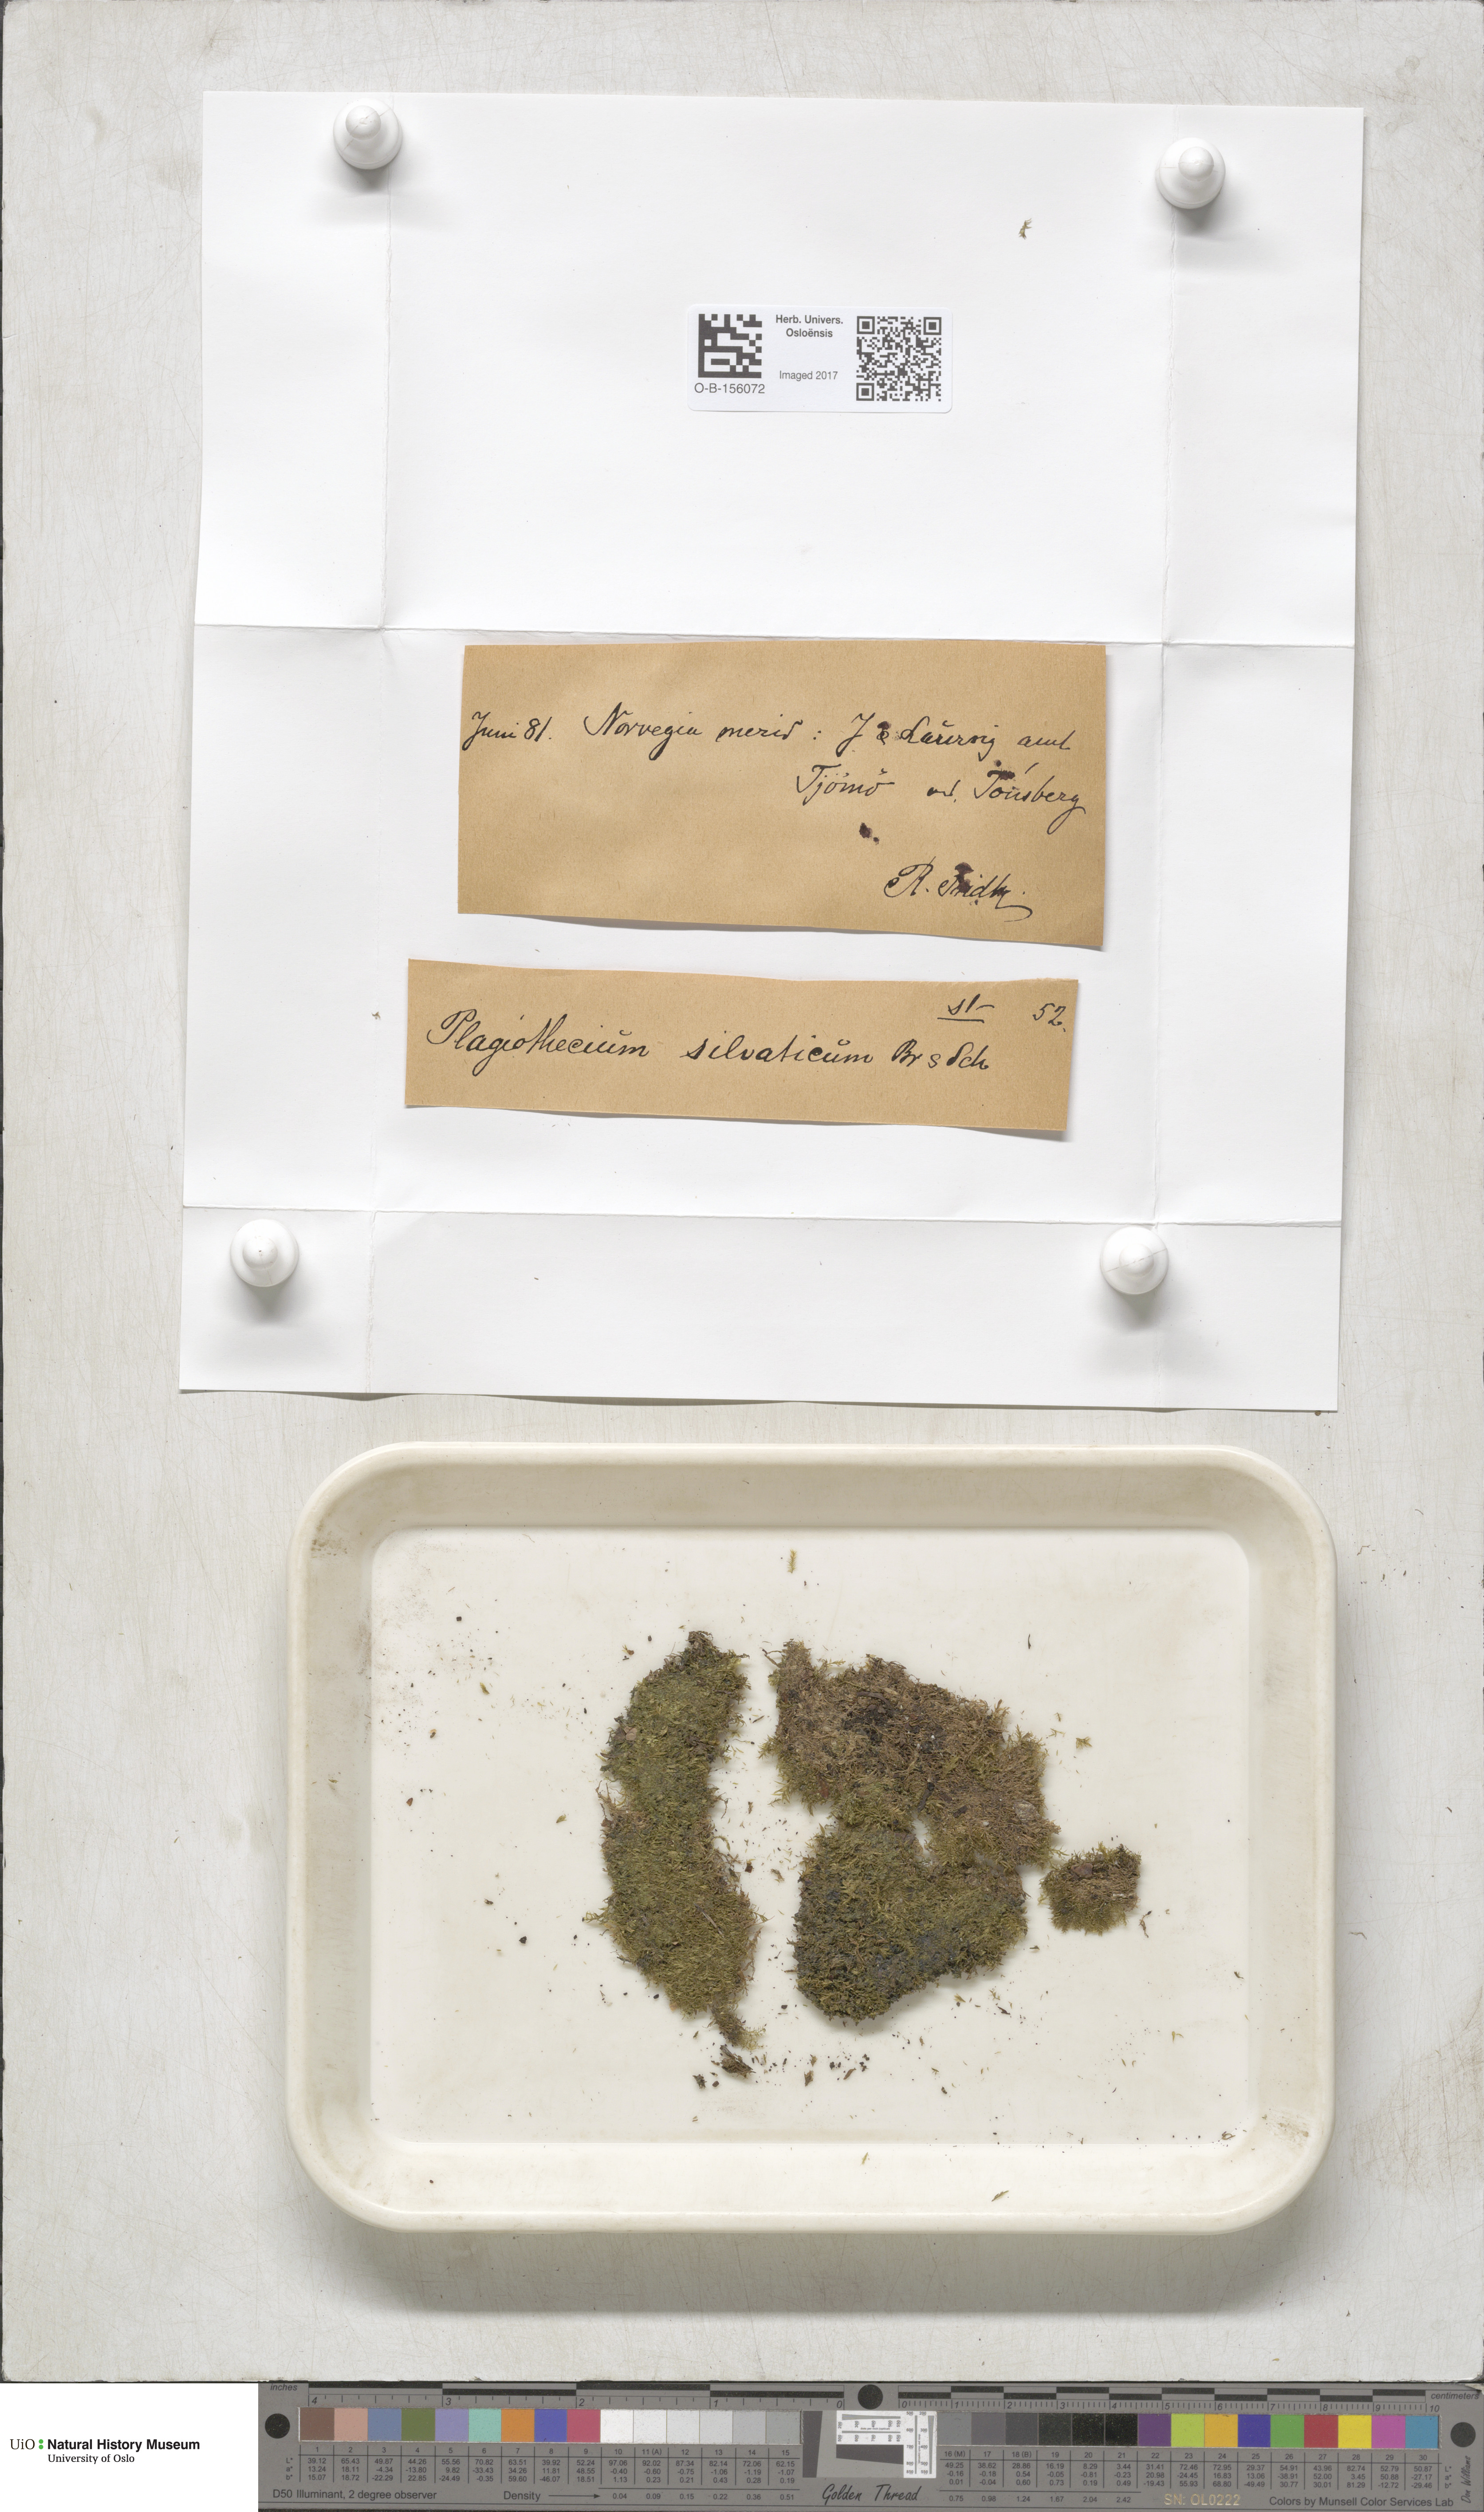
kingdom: Plantae
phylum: Bryophyta
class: Bryopsida
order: Hypnales
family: Plagiotheciaceae
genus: Plagiothecium
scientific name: Plagiothecium nemorale
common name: Woodsy silk-moss
